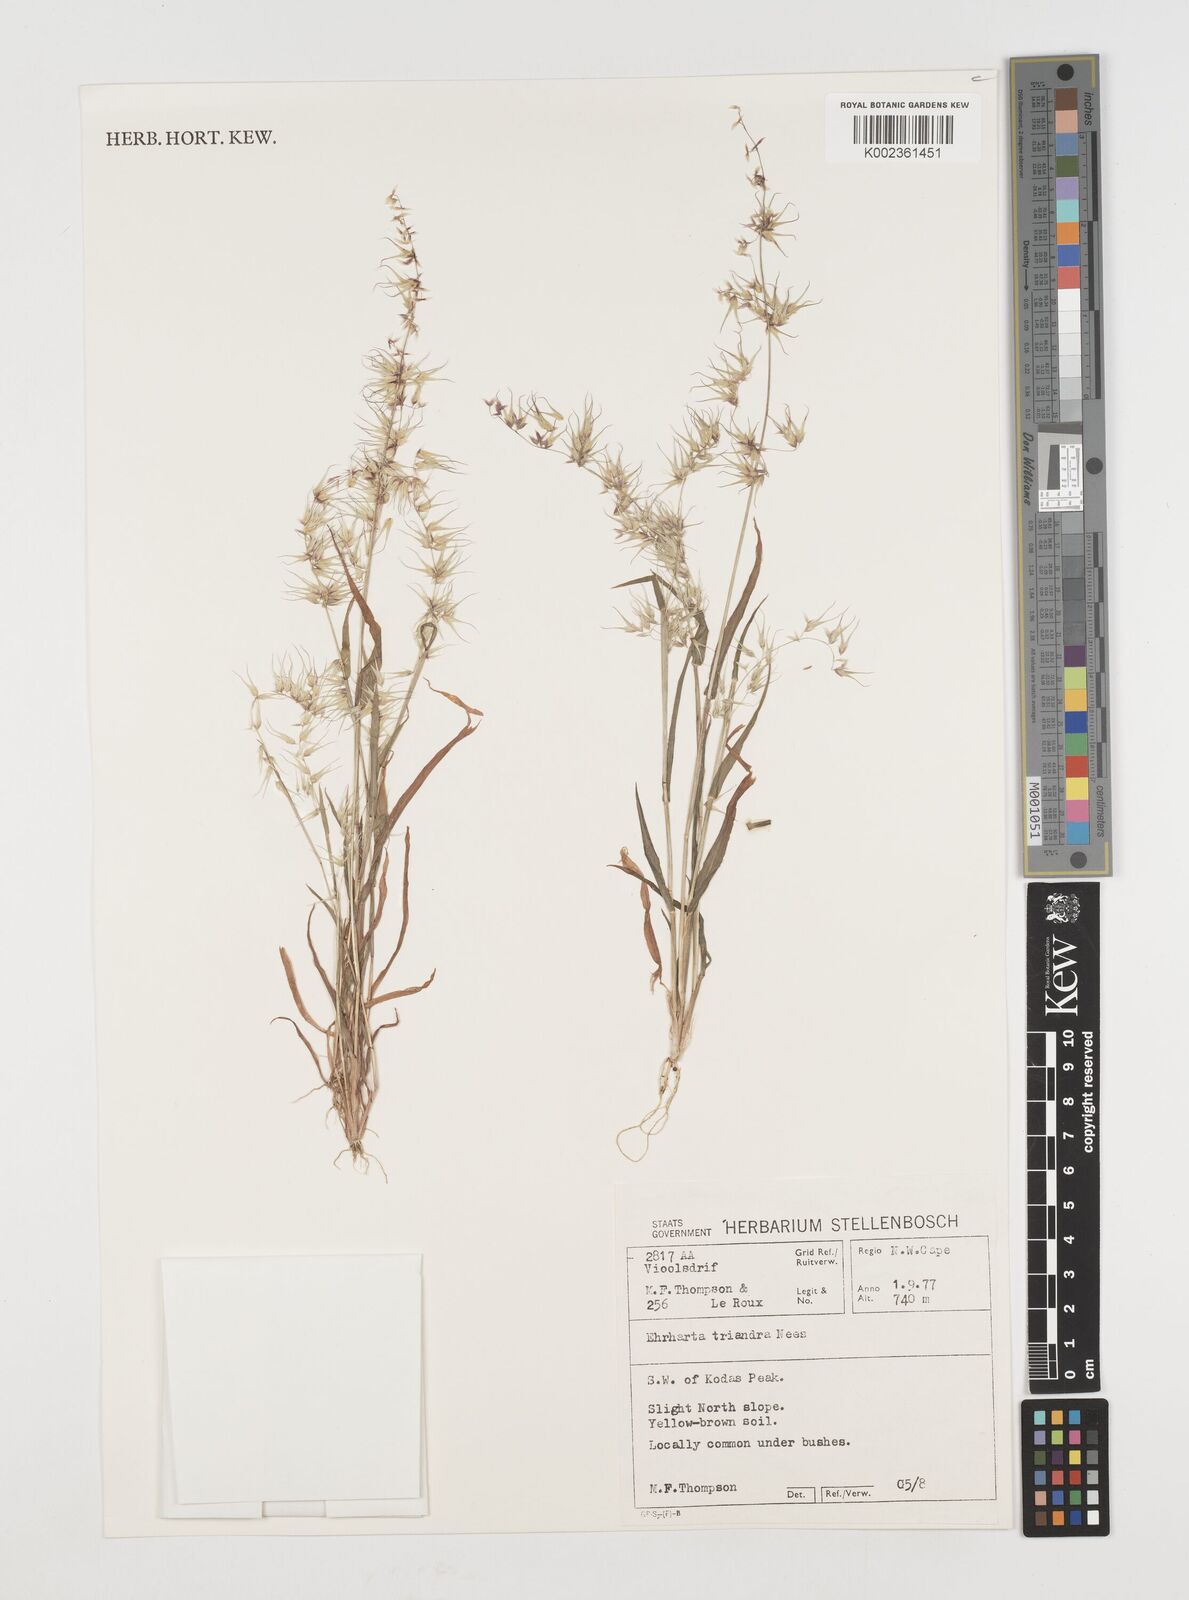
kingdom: Plantae
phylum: Tracheophyta
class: Liliopsida
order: Poales
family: Poaceae
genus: Ehrharta
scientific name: Ehrharta triandra
